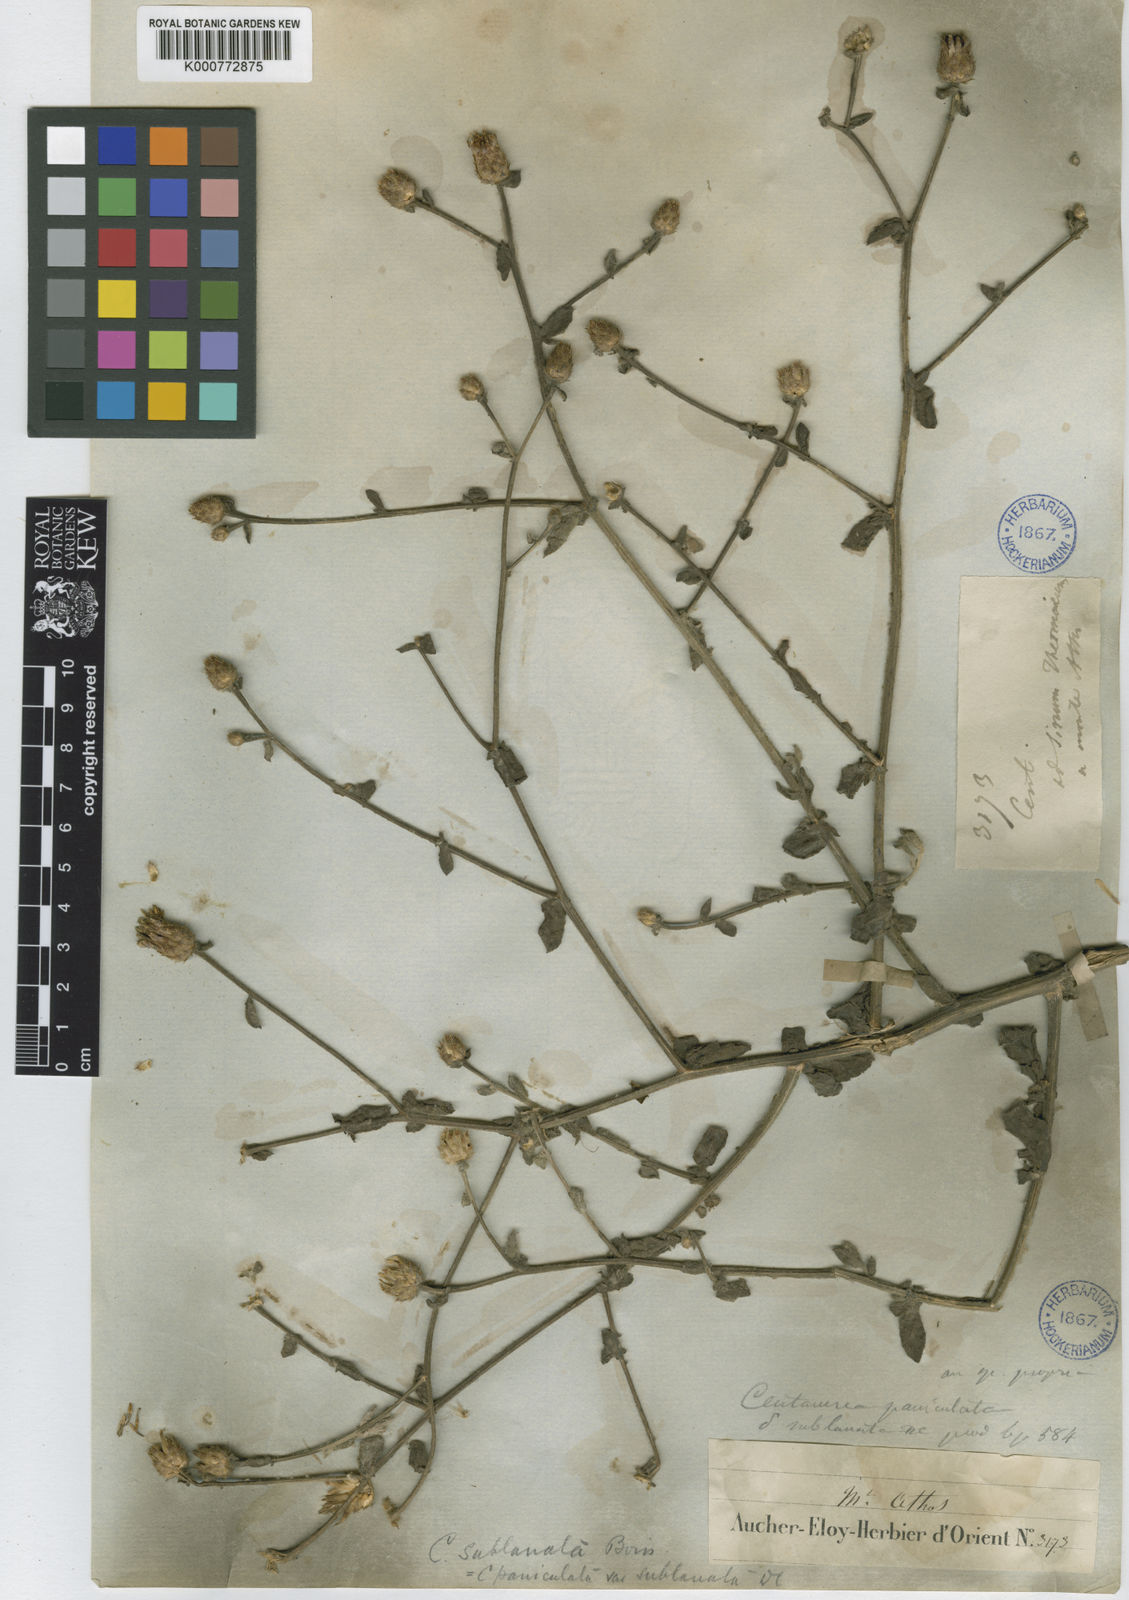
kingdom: Plantae
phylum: Tracheophyta
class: Magnoliopsida
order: Asterales
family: Asteraceae
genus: Centaurea
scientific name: Centaurea cuneifolia
